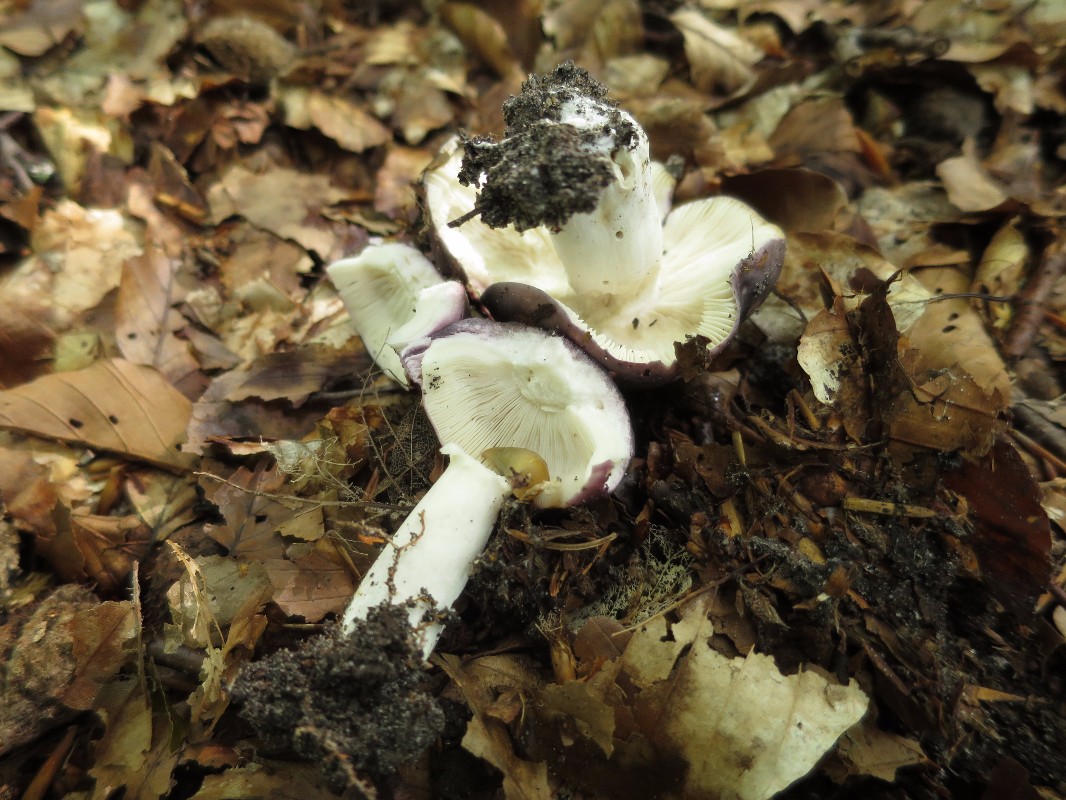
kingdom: Fungi
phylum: Basidiomycota
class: Agaricomycetes
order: Russulales
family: Russulaceae
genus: Russula
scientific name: Russula cyanoxantha
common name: broget skørhat
